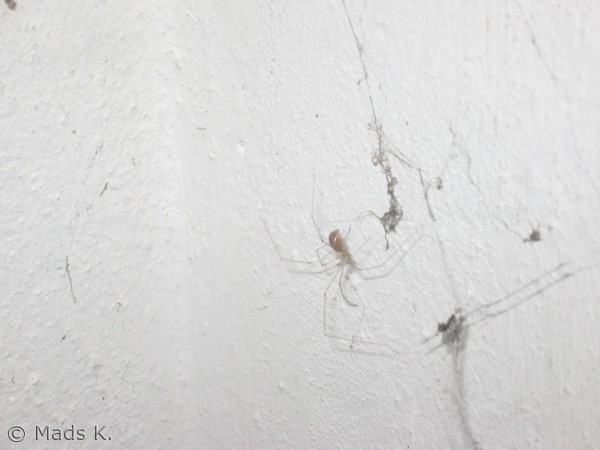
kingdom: Animalia
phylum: Arthropoda
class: Arachnida
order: Araneae
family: Pholcidae
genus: Pholcus
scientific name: Pholcus phalangioides
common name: Mejeredderkop
